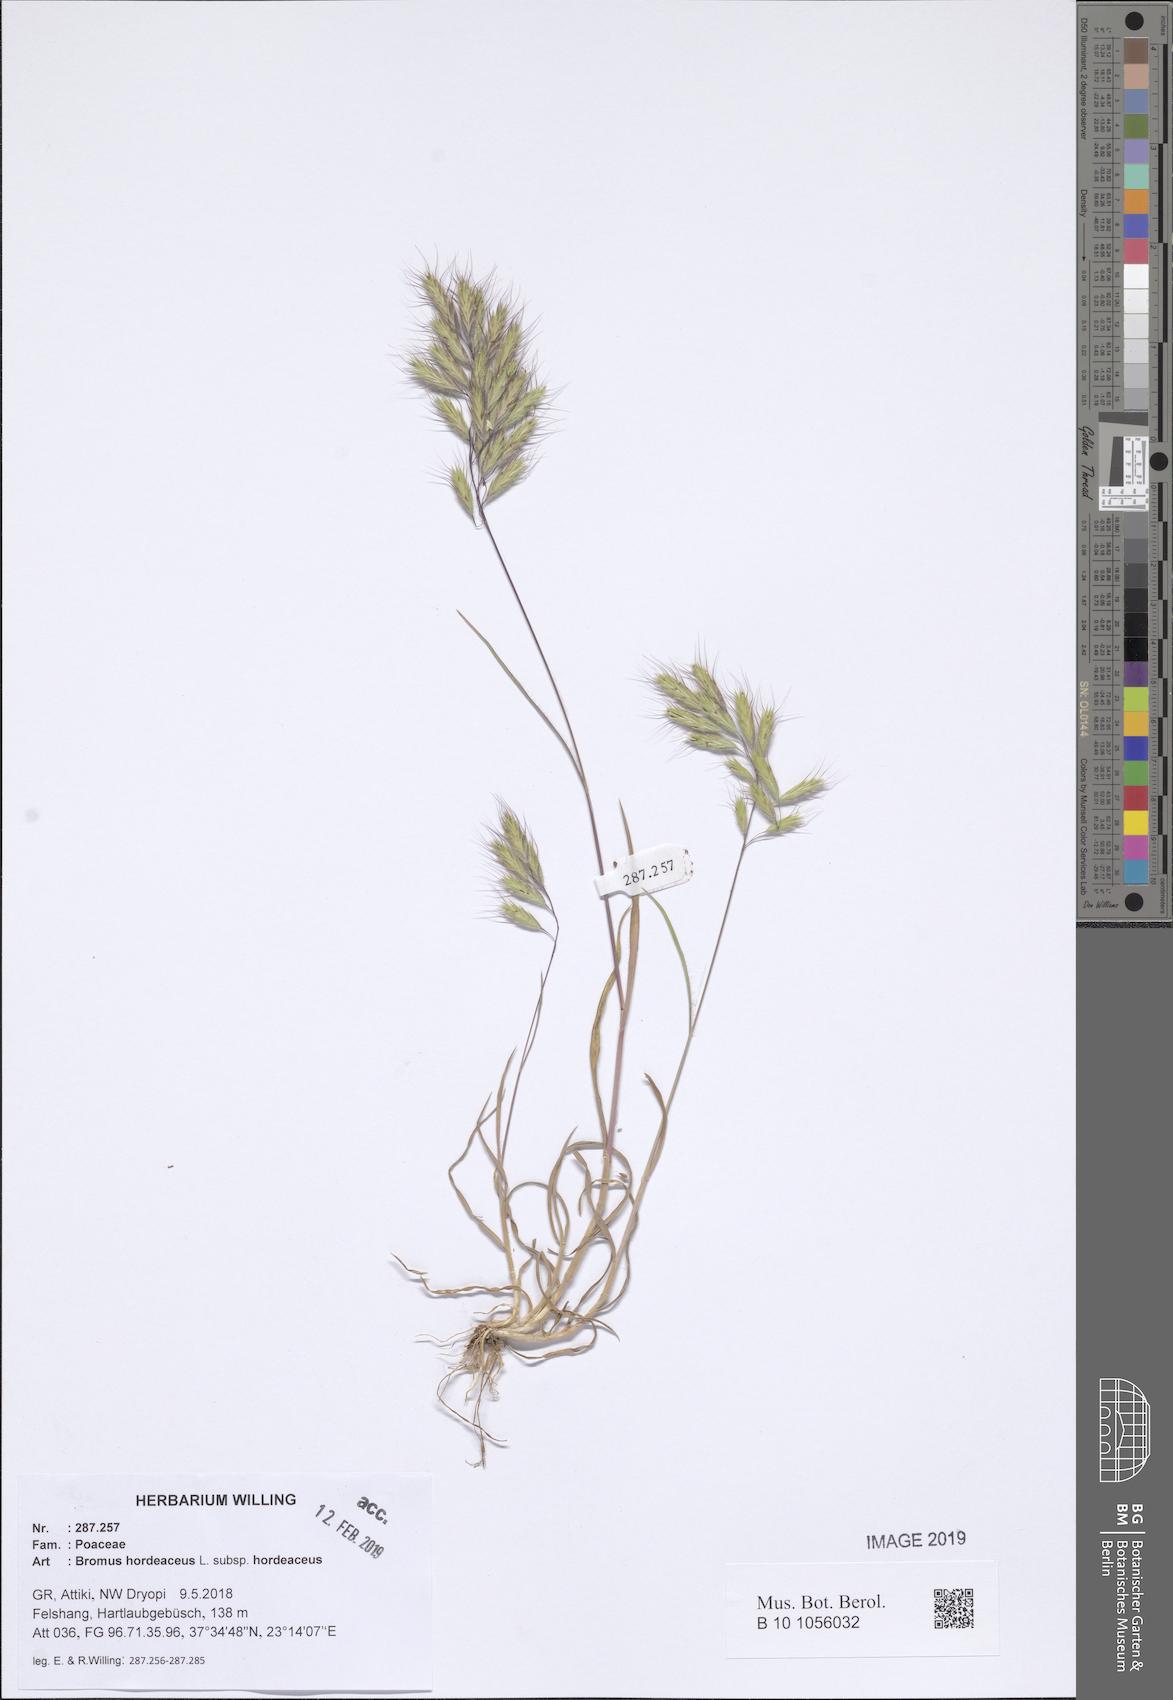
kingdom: Plantae
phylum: Tracheophyta
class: Liliopsida
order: Poales
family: Poaceae
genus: Bromus
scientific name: Bromus hordeaceus
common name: Soft brome
